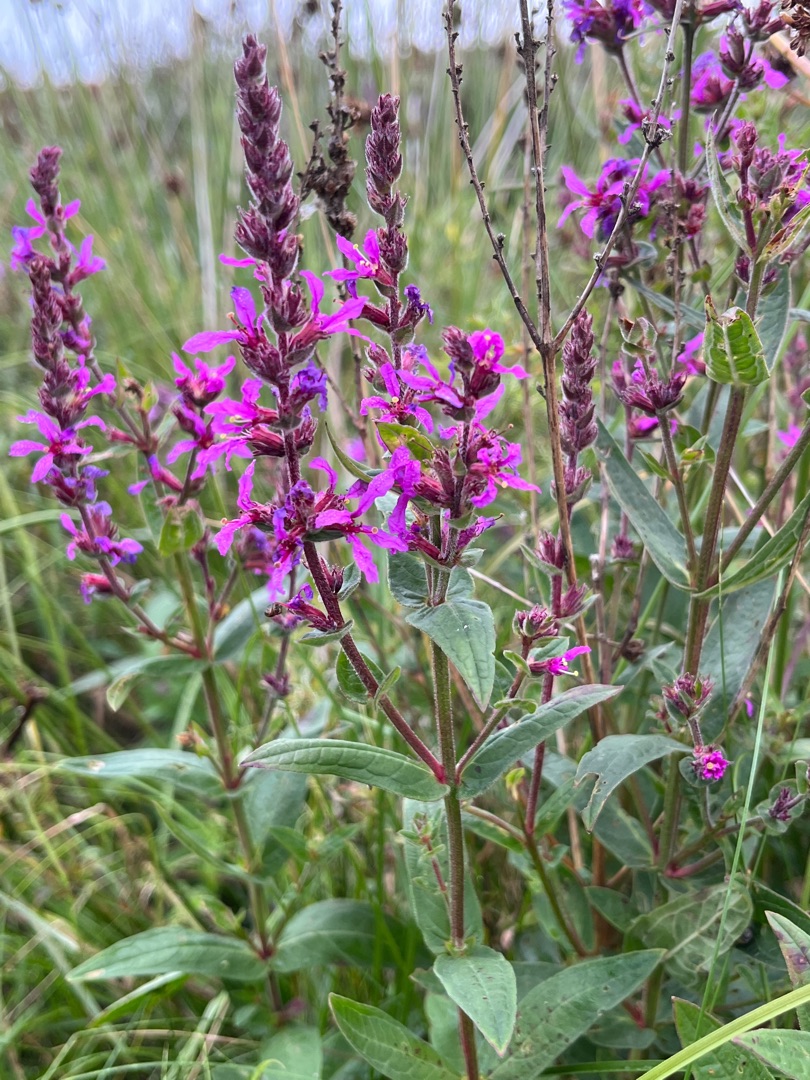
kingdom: Plantae
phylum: Tracheophyta
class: Magnoliopsida
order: Myrtales
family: Lythraceae
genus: Lythrum
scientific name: Lythrum salicaria
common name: Kattehale
